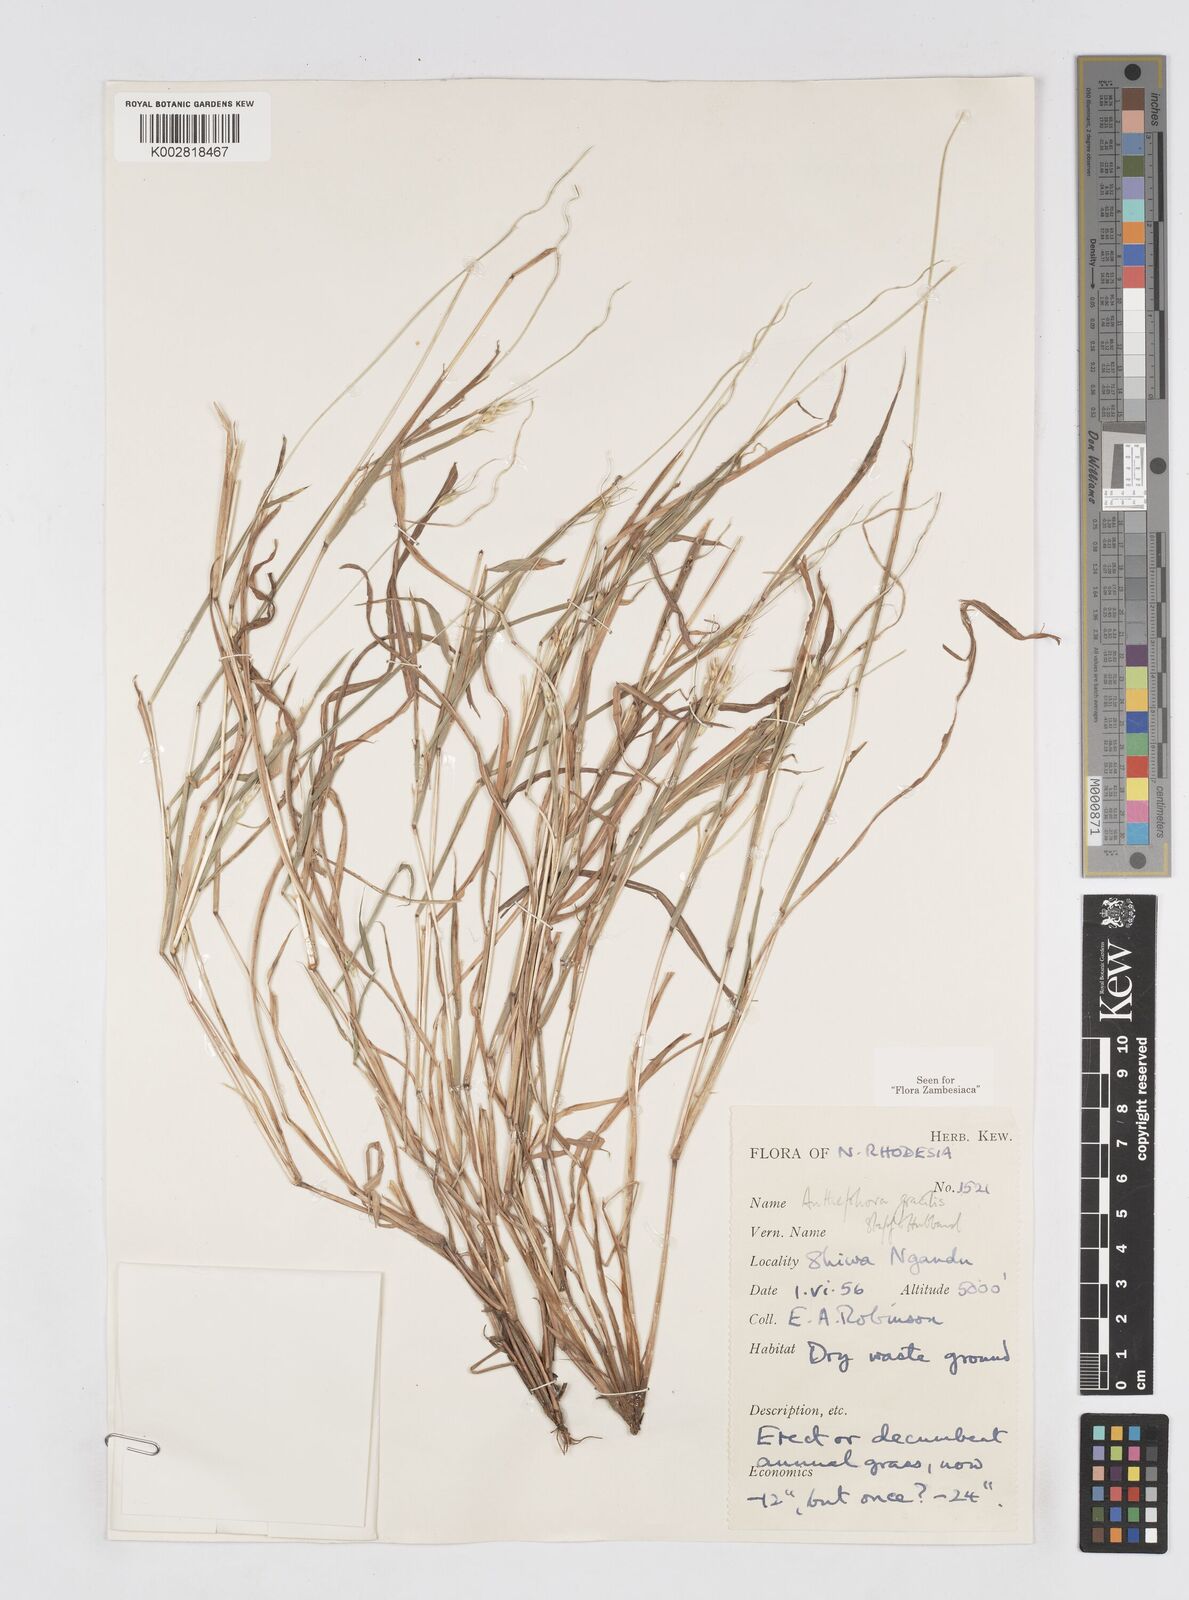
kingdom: Plantae
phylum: Tracheophyta
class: Liliopsida
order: Poales
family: Poaceae
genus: Anthephora
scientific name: Anthephora truncata
